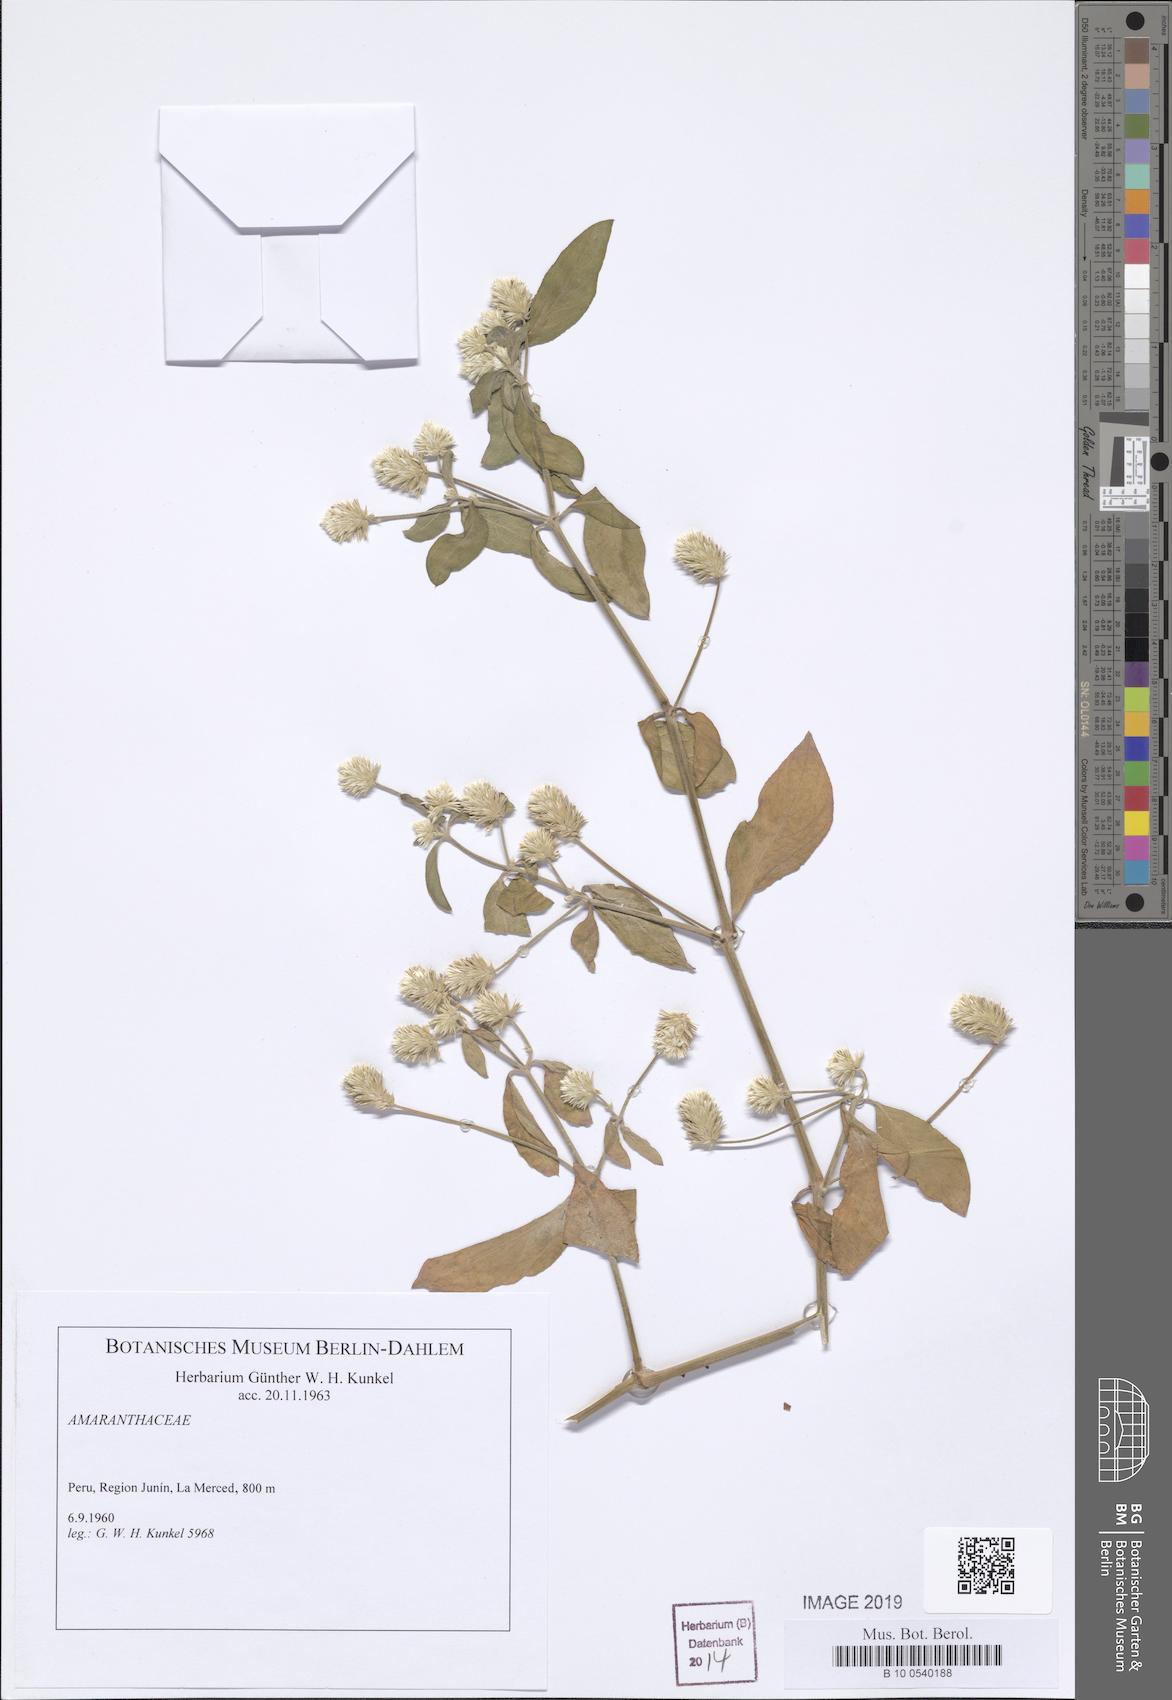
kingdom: Plantae
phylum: Tracheophyta
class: Magnoliopsida
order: Caryophyllales
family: Amaranthaceae
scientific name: Amaranthaceae
